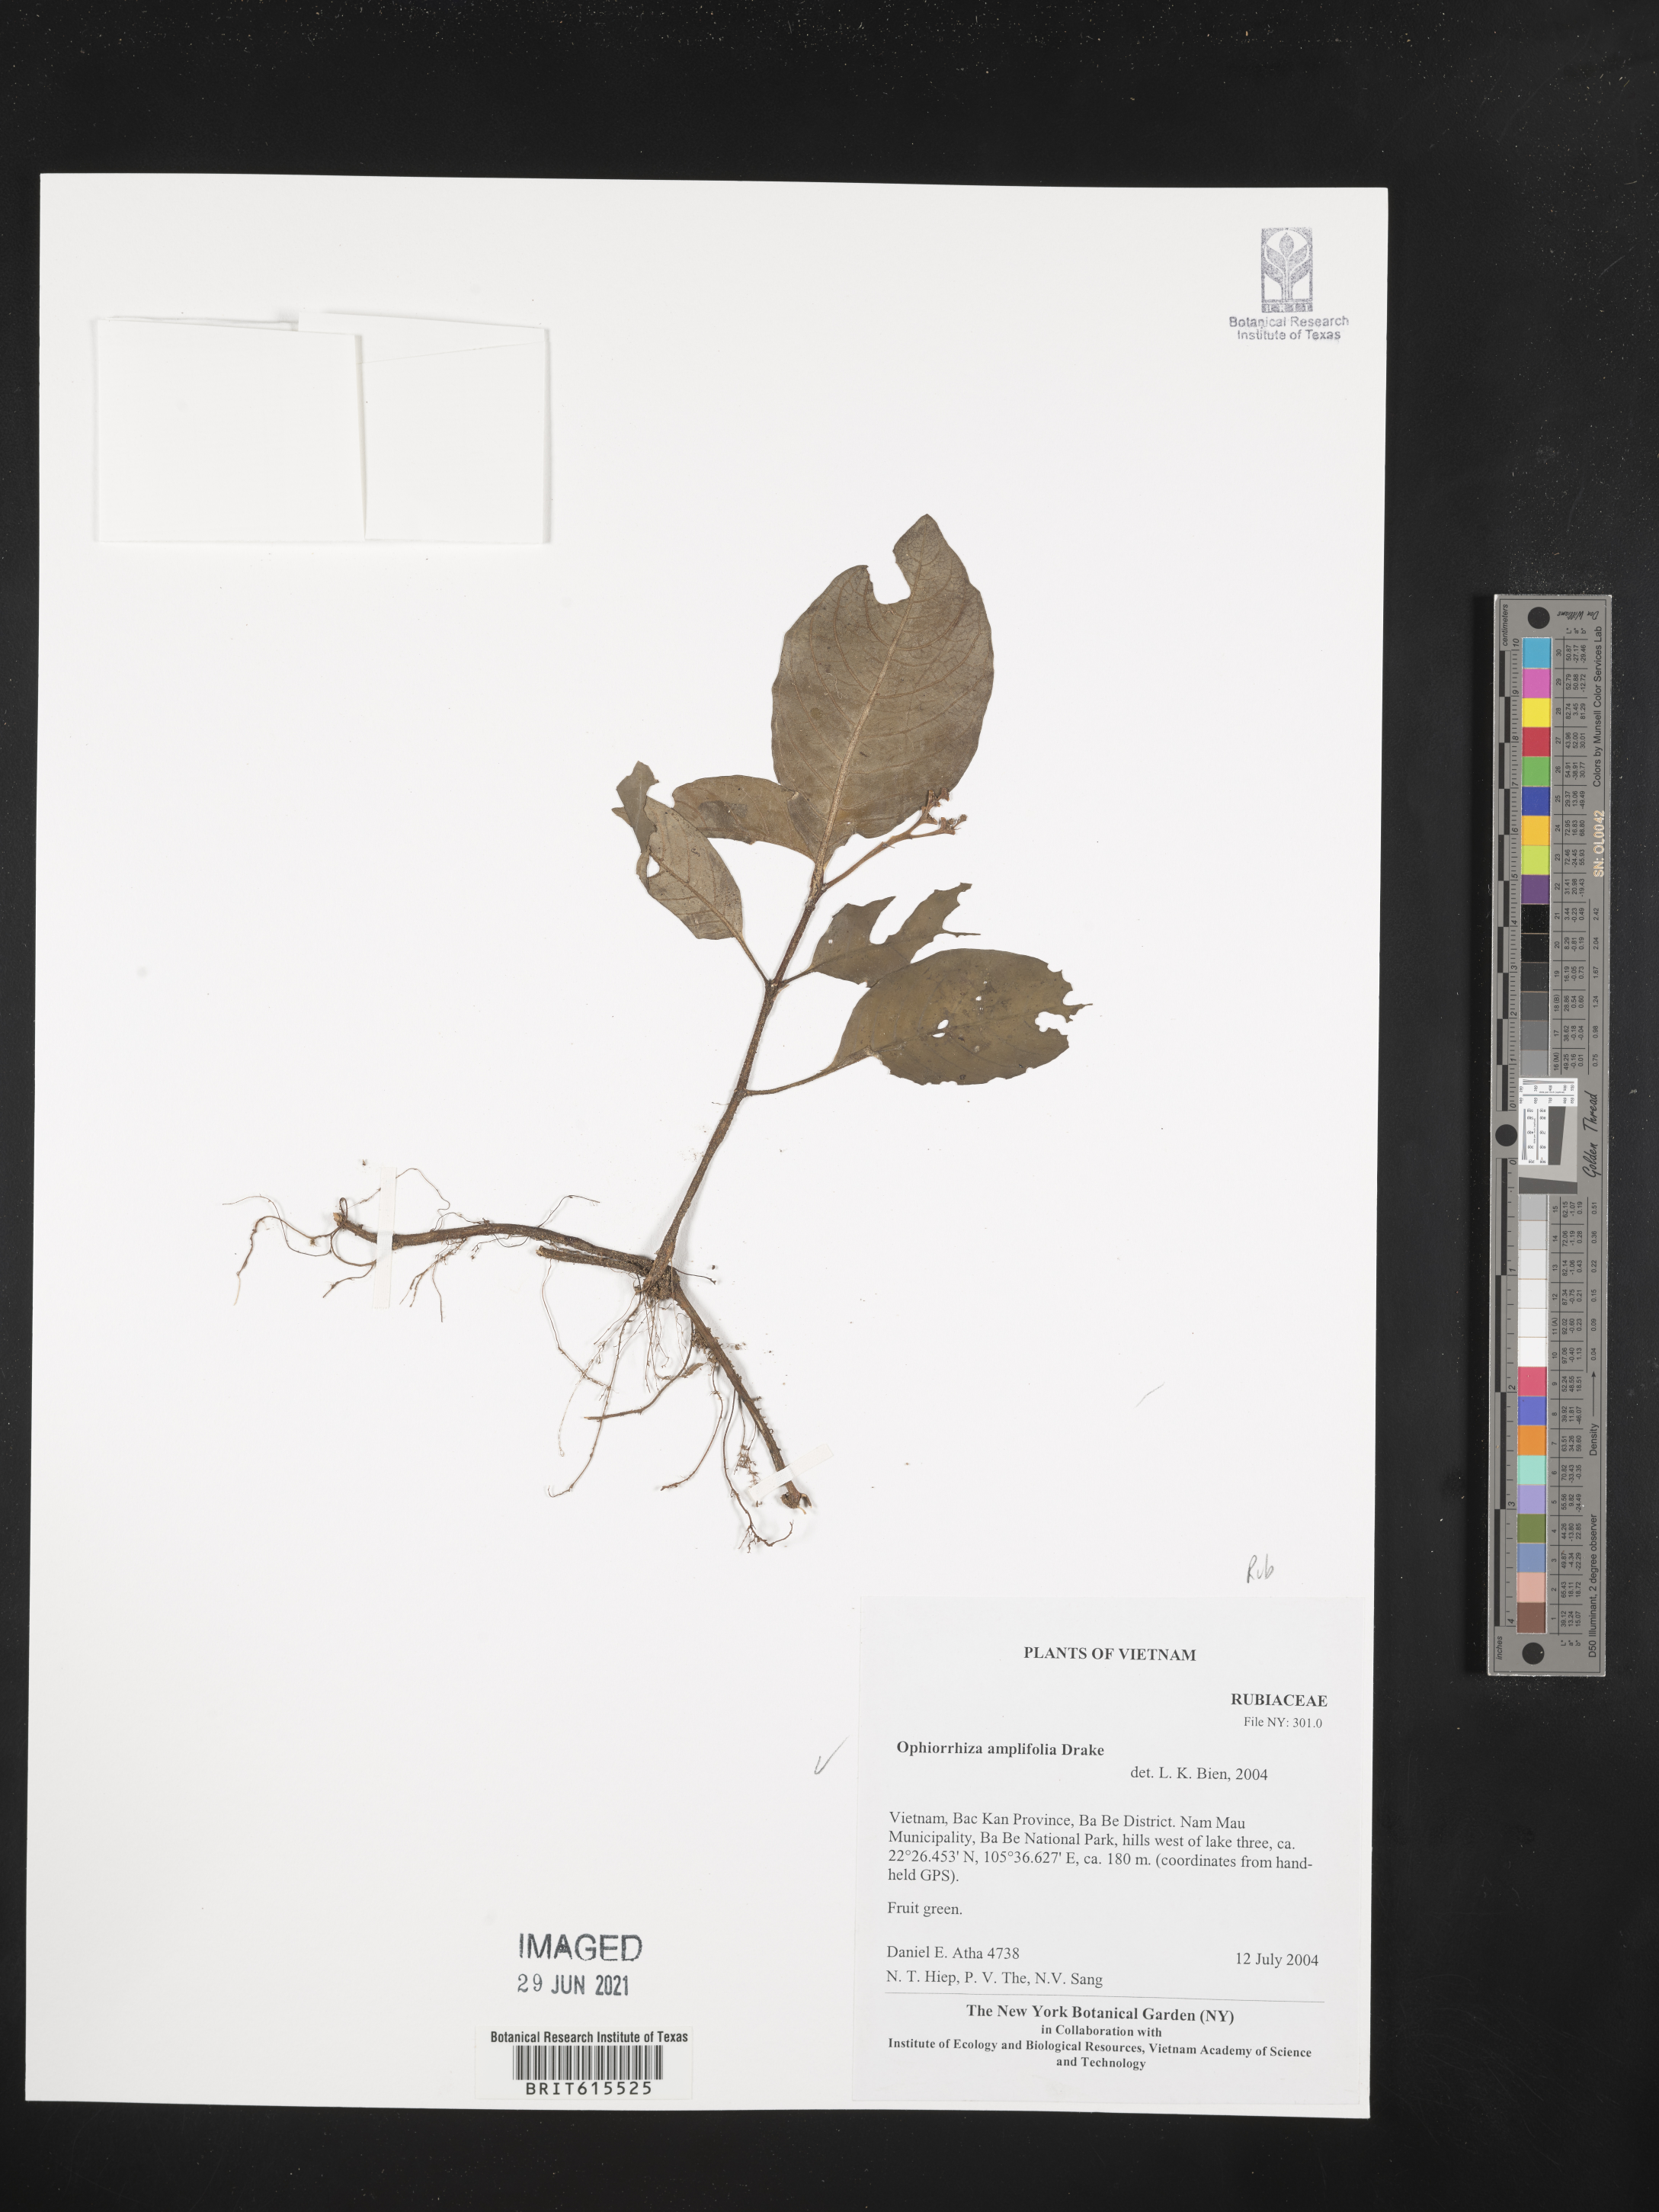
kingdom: Plantae
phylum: Tracheophyta
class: Magnoliopsida
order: Gentianales
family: Rubiaceae
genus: Ophiorrhiza
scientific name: Ophiorrhiza amplifolia
